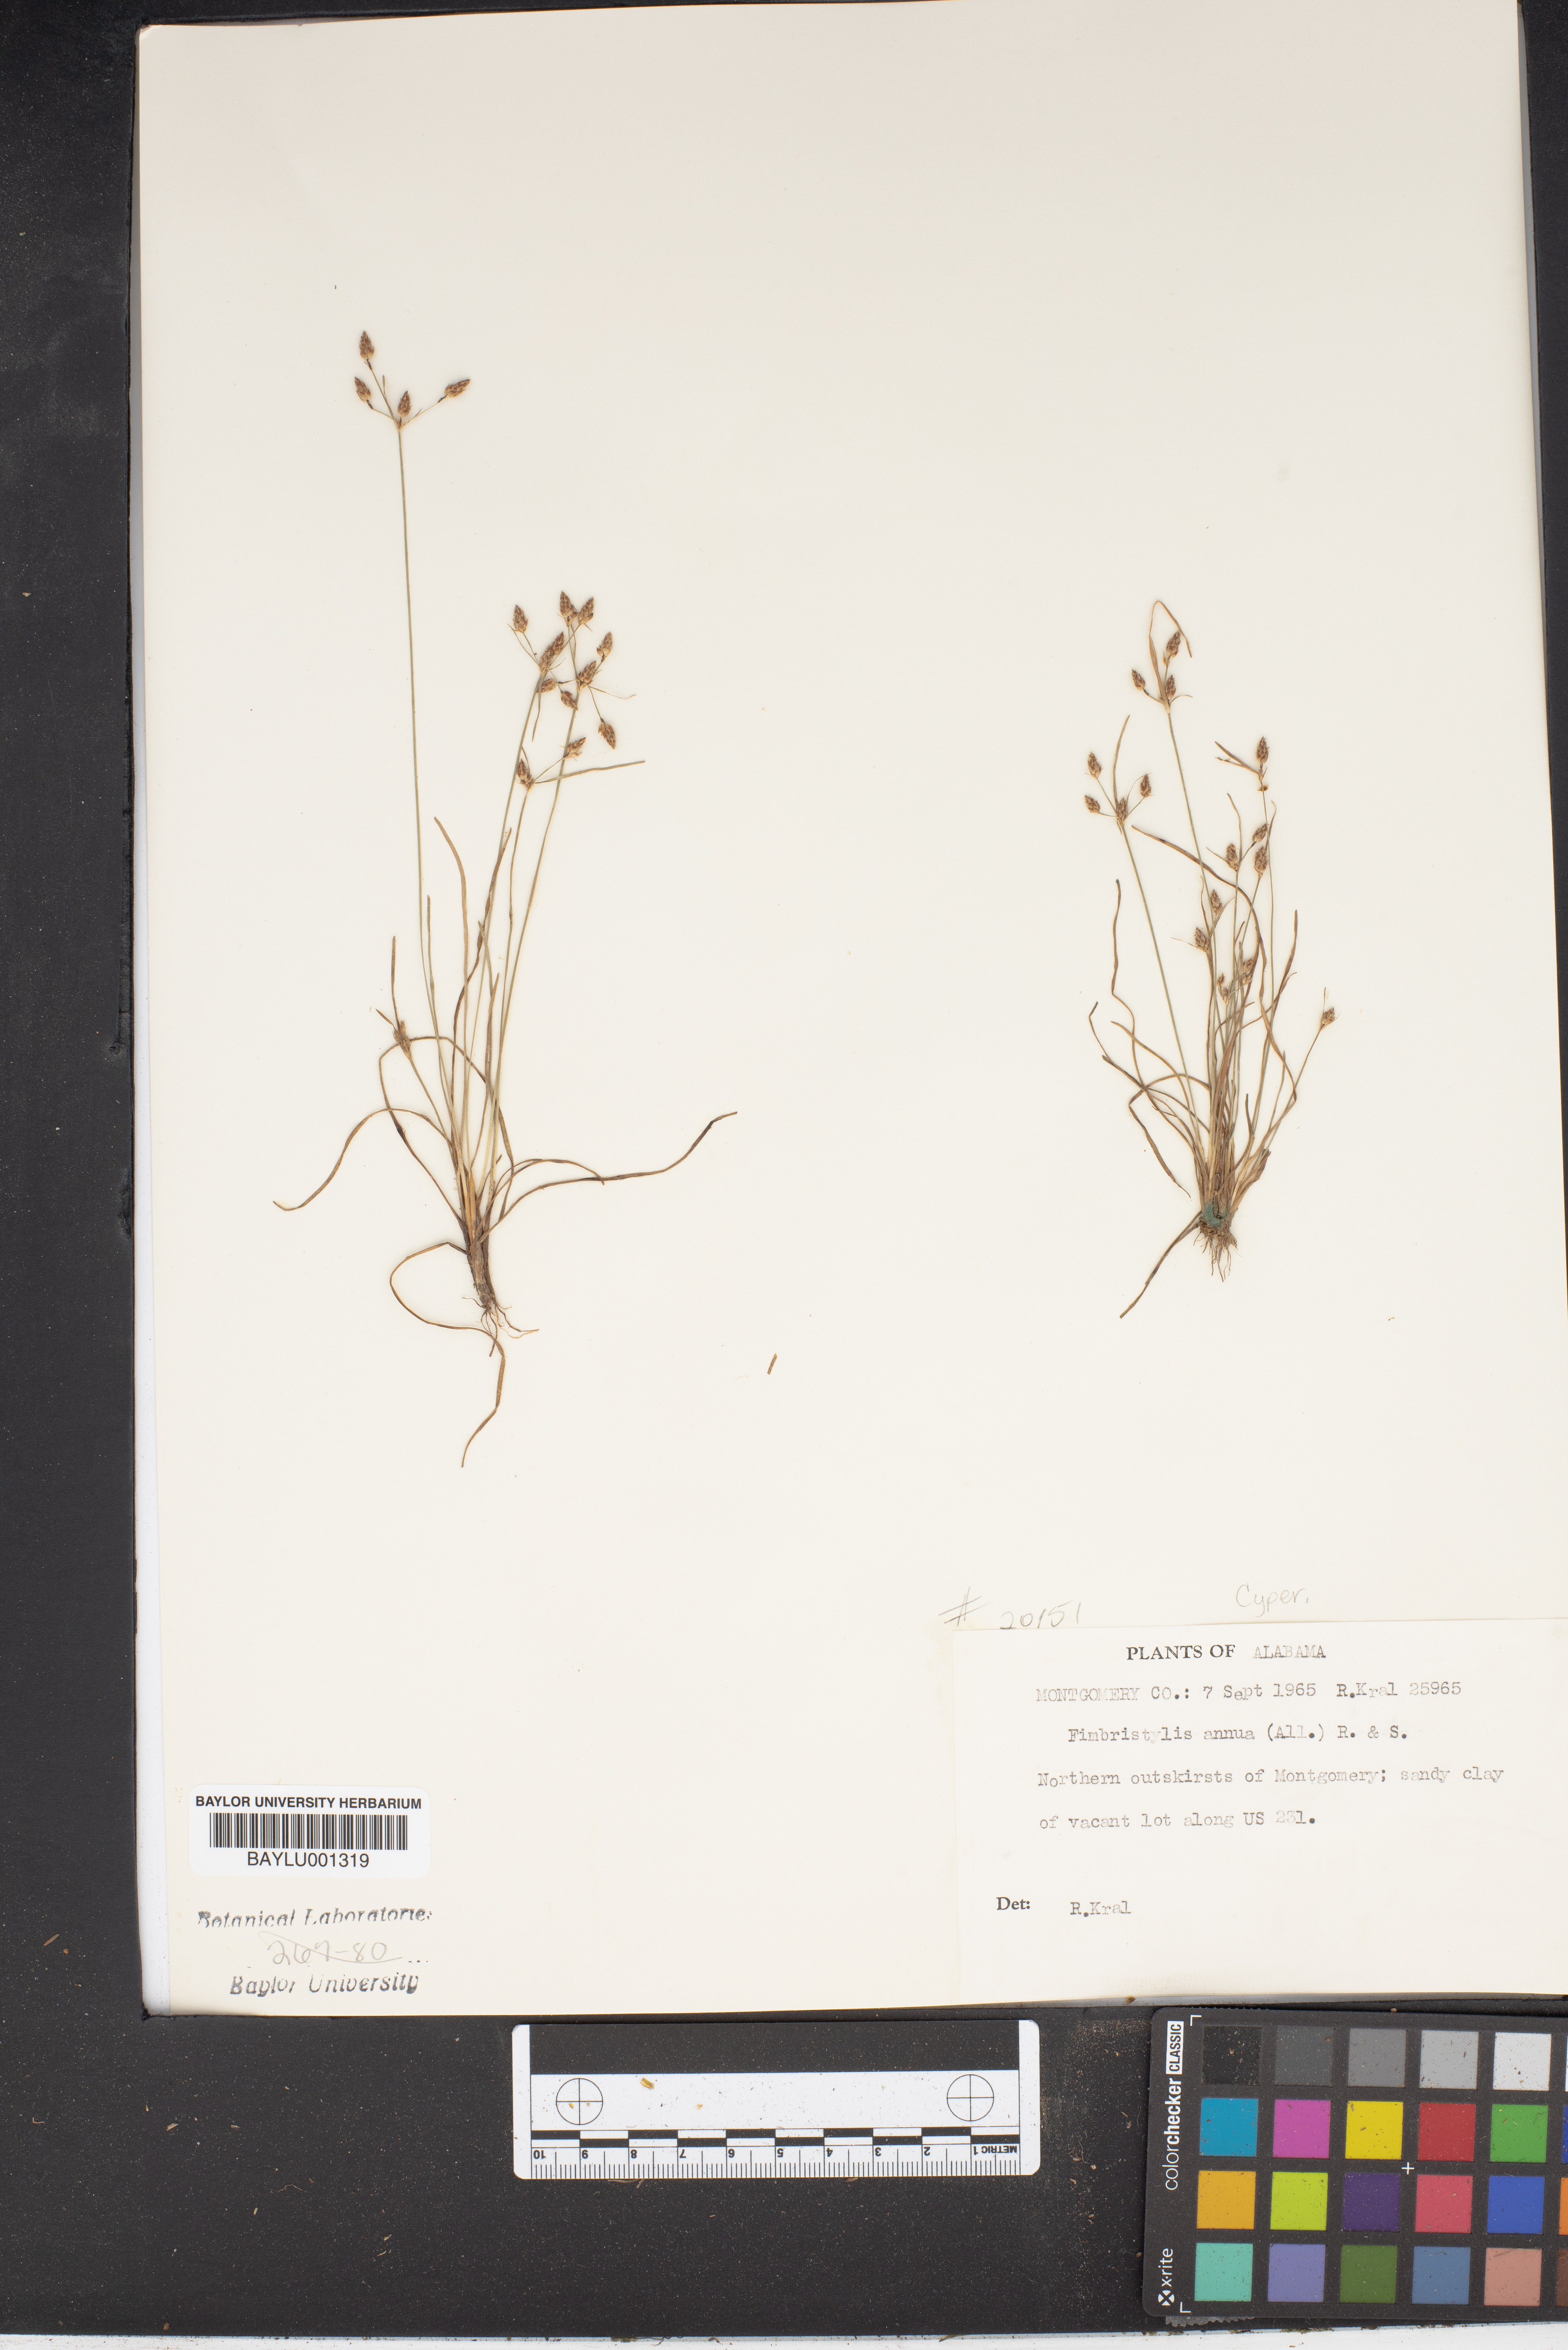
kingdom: Plantae
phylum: Tracheophyta
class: Liliopsida
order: Poales
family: Cyperaceae
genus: Fimbristylis
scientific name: Fimbristylis dichotoma
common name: Forked fimbry
